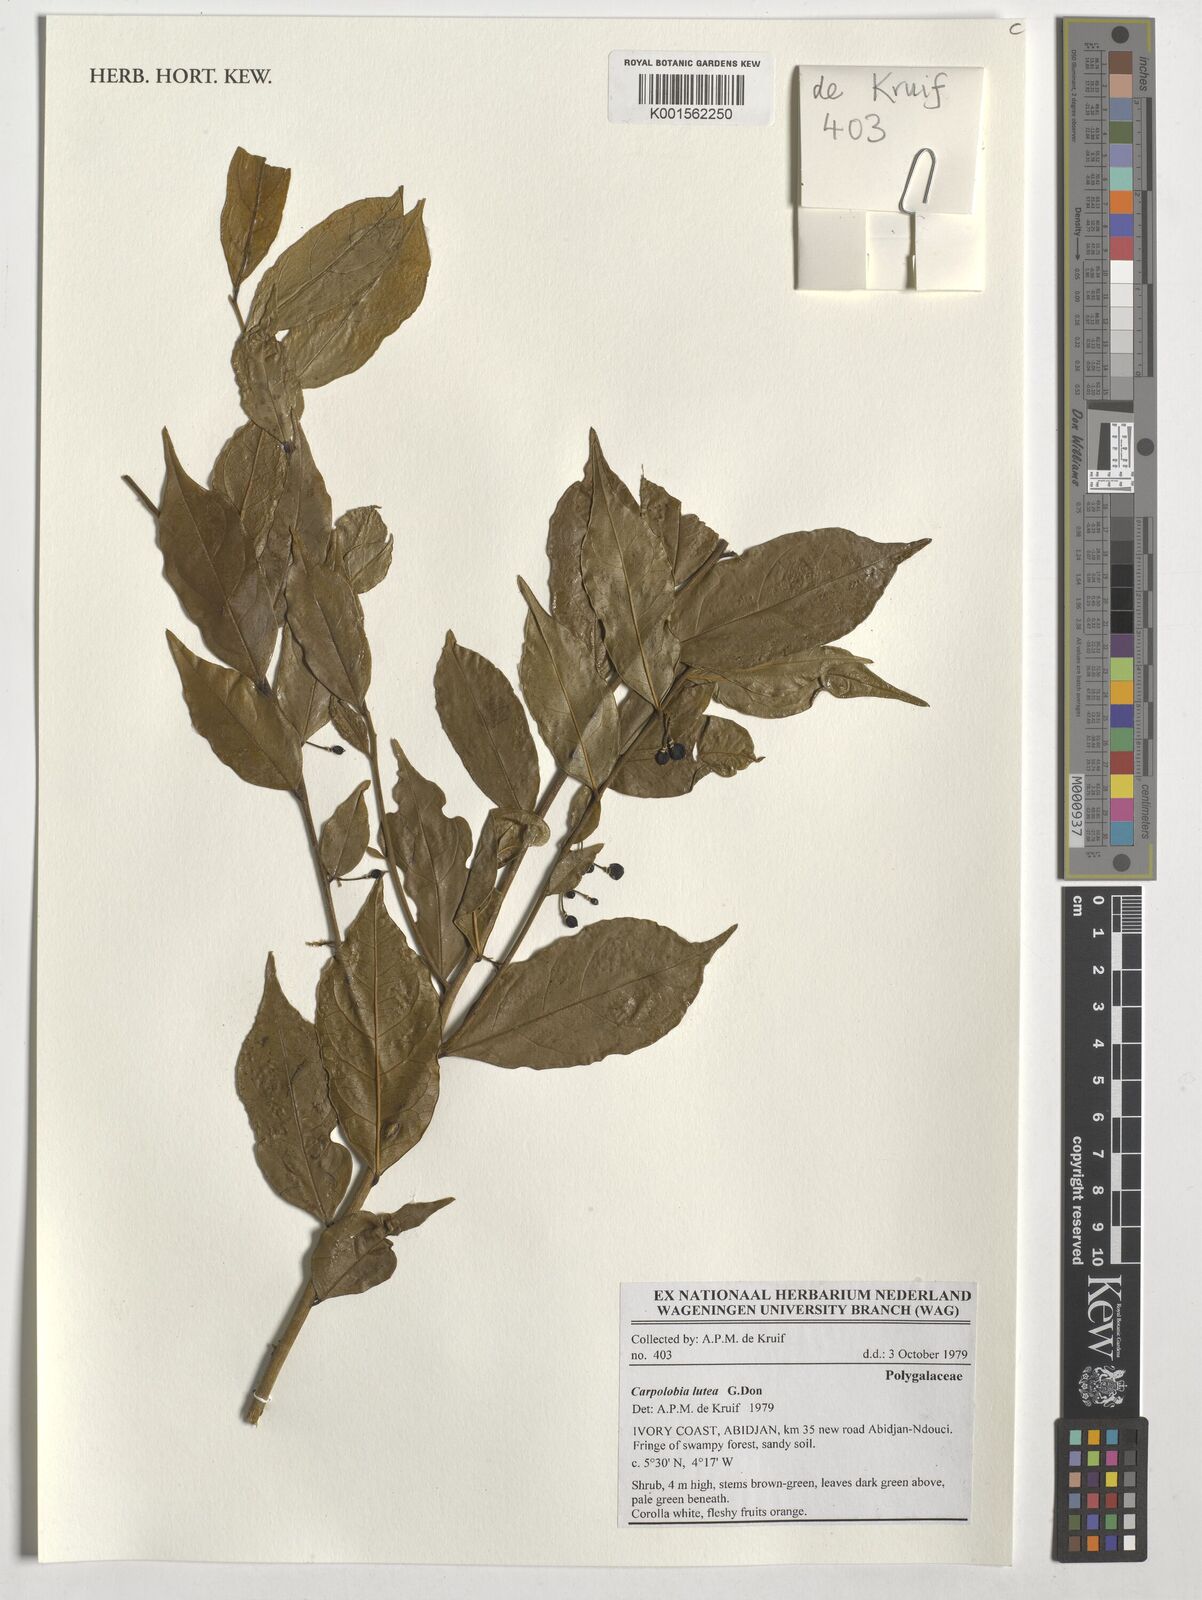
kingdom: Plantae
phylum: Tracheophyta
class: Magnoliopsida
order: Fabales
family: Polygalaceae
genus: Carpolobia
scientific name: Carpolobia lutea
